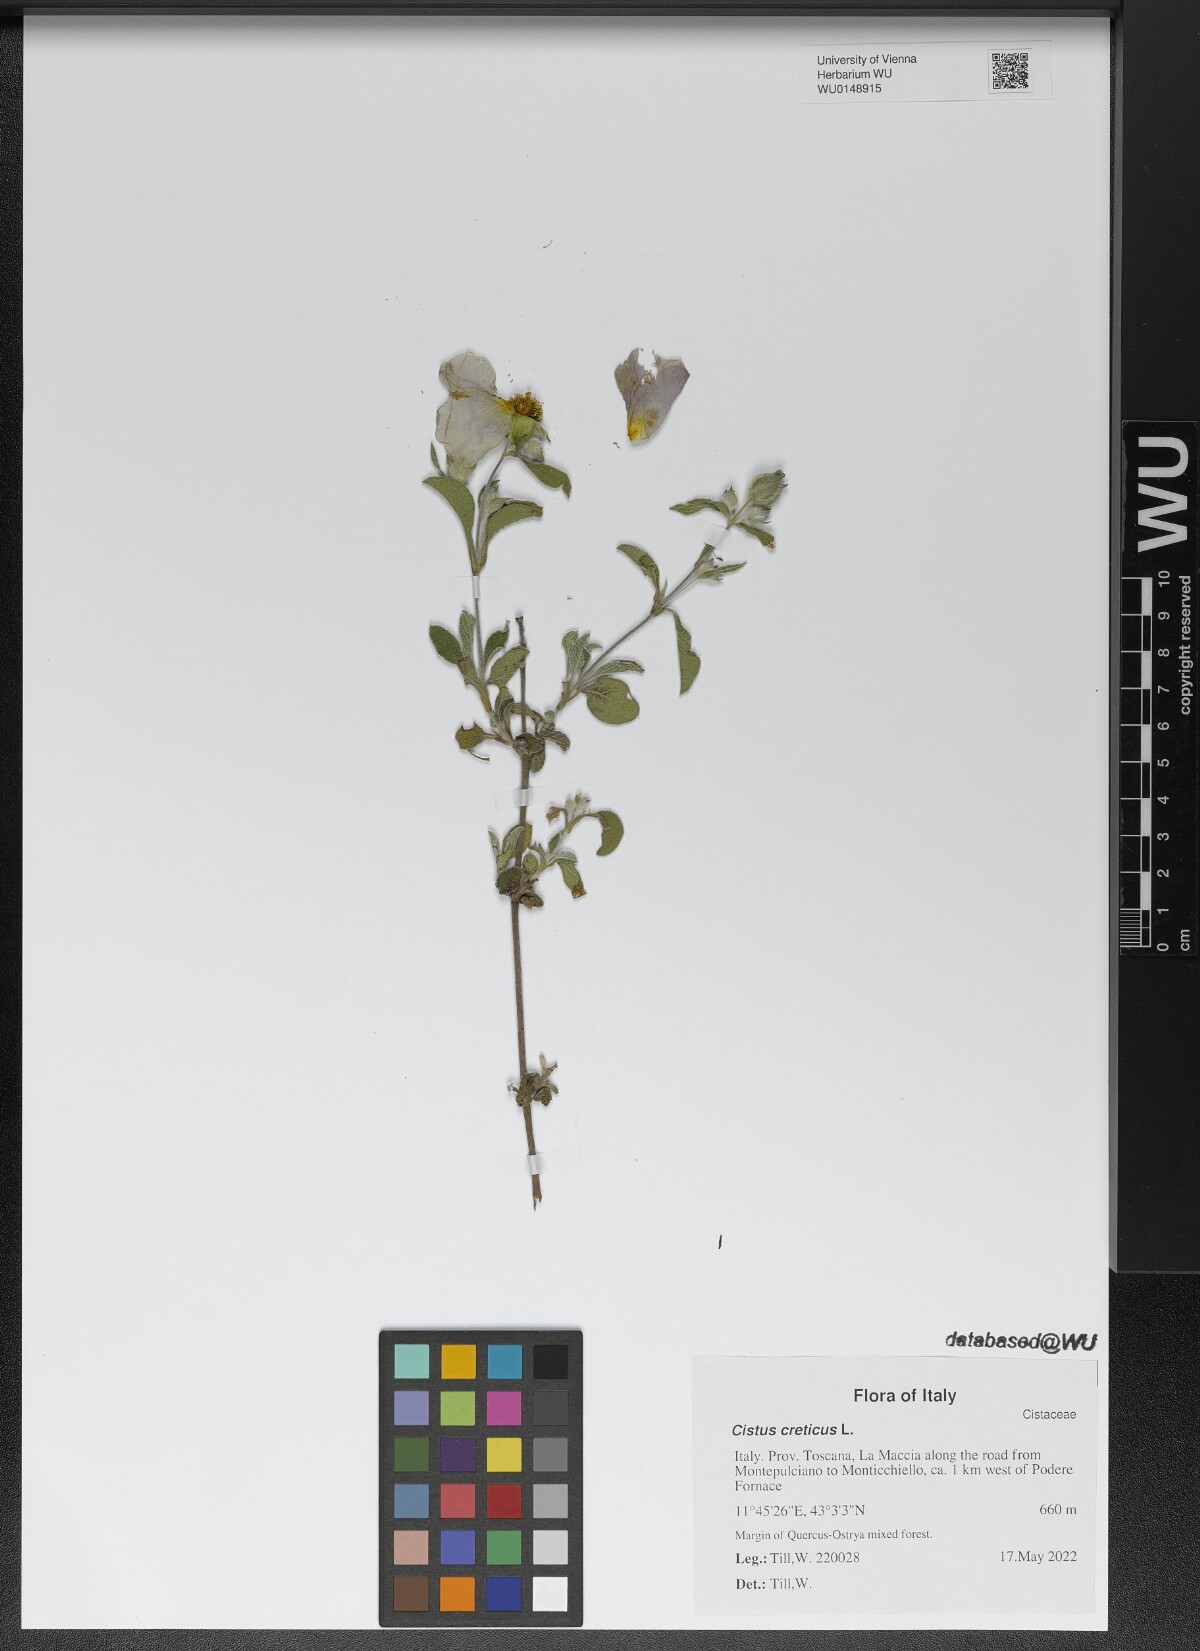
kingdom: Plantae
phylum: Tracheophyta
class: Magnoliopsida
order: Malvales
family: Cistaceae
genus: Cistus
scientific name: Cistus creticus
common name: Cretan rockrose
